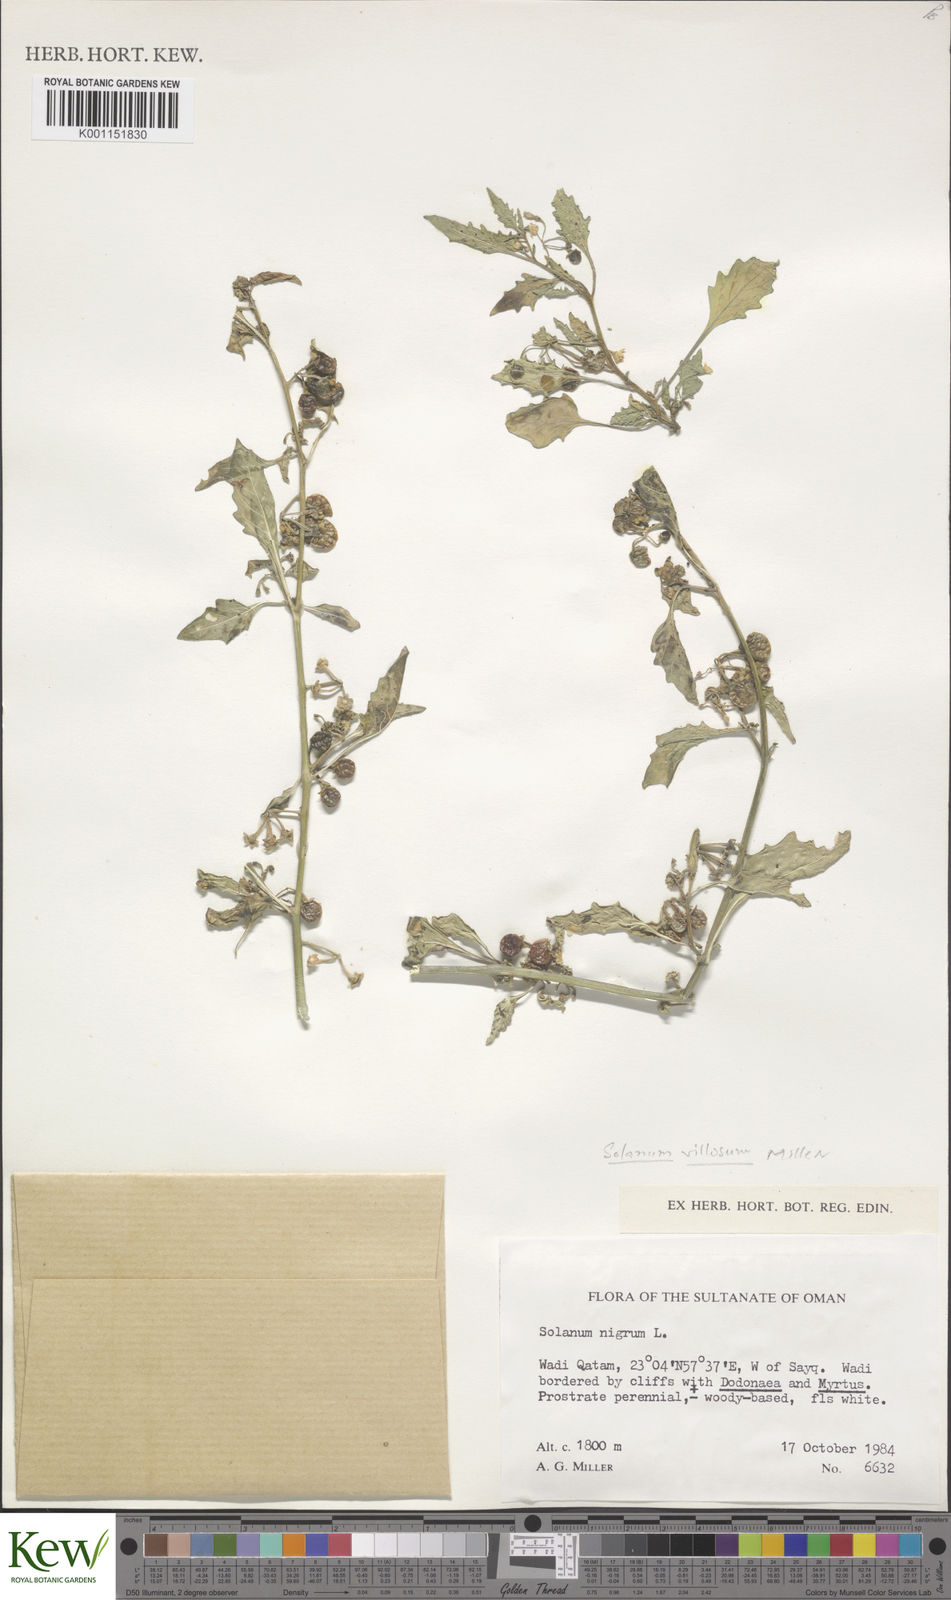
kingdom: Plantae
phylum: Tracheophyta
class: Magnoliopsida
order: Solanales
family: Solanaceae
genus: Solanum
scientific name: Solanum villosum
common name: Red nightshade
